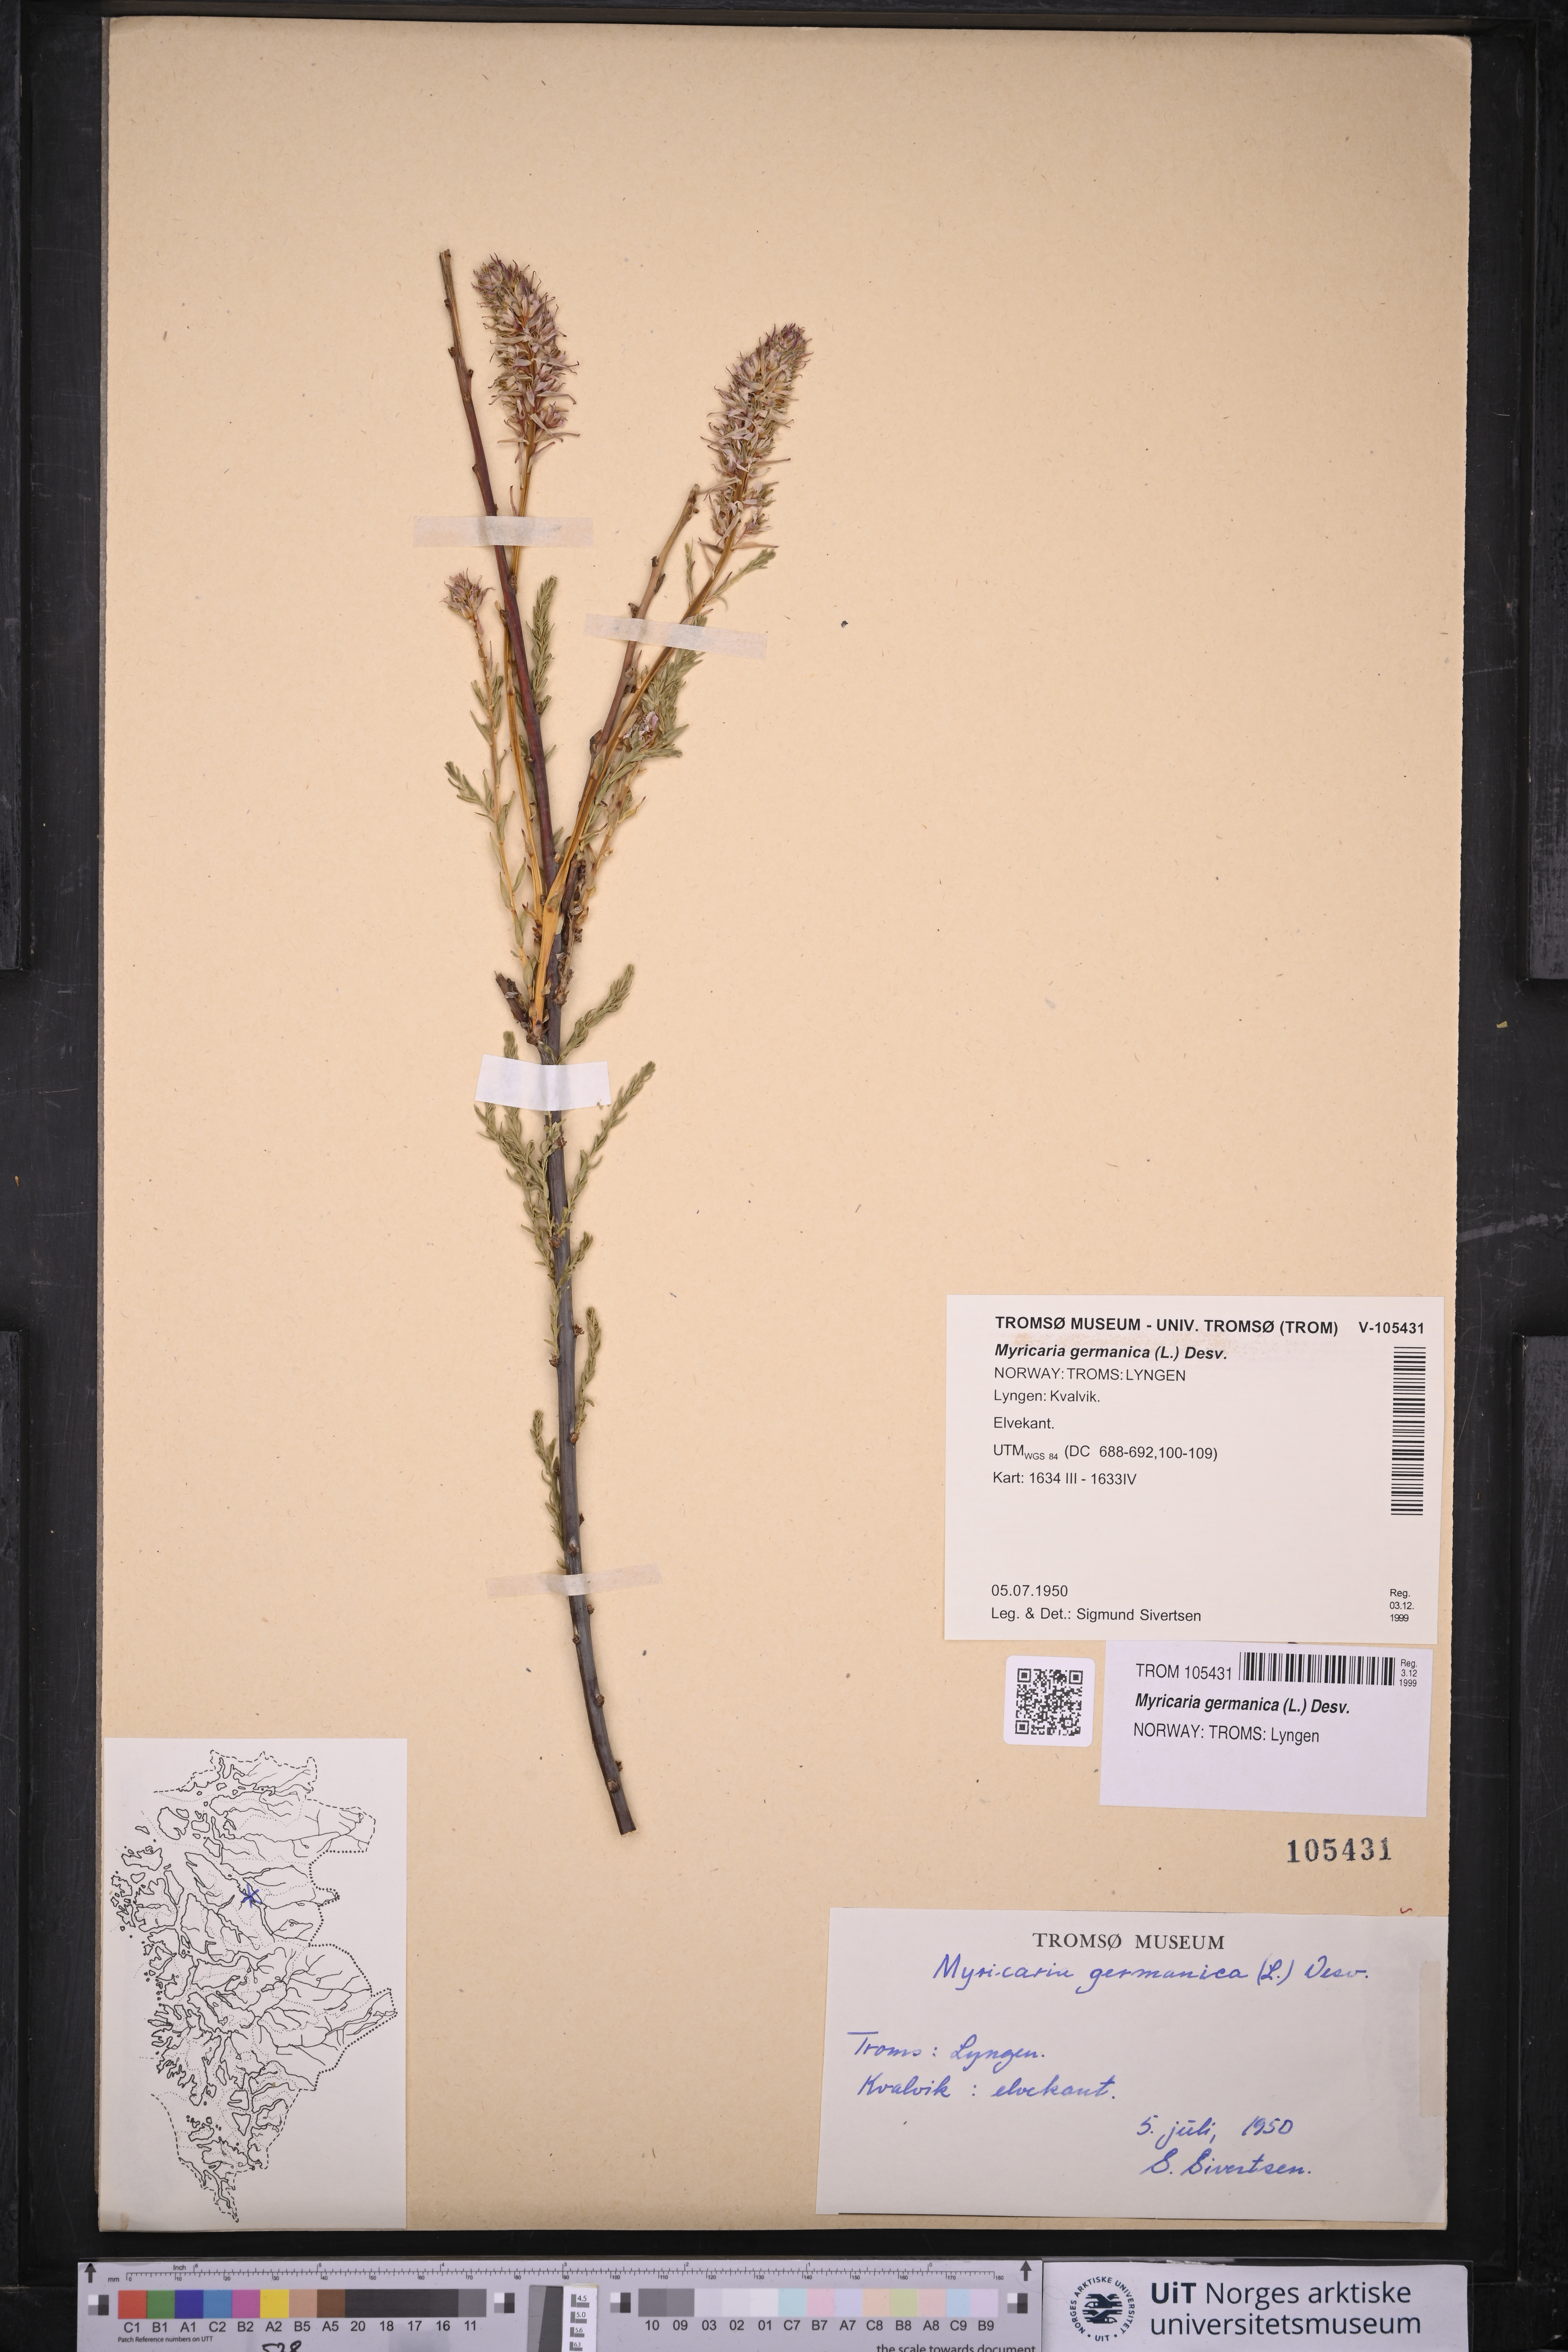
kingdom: Plantae
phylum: Tracheophyta
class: Magnoliopsida
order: Caryophyllales
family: Tamaricaceae
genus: Myricaria
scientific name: Myricaria germanica
